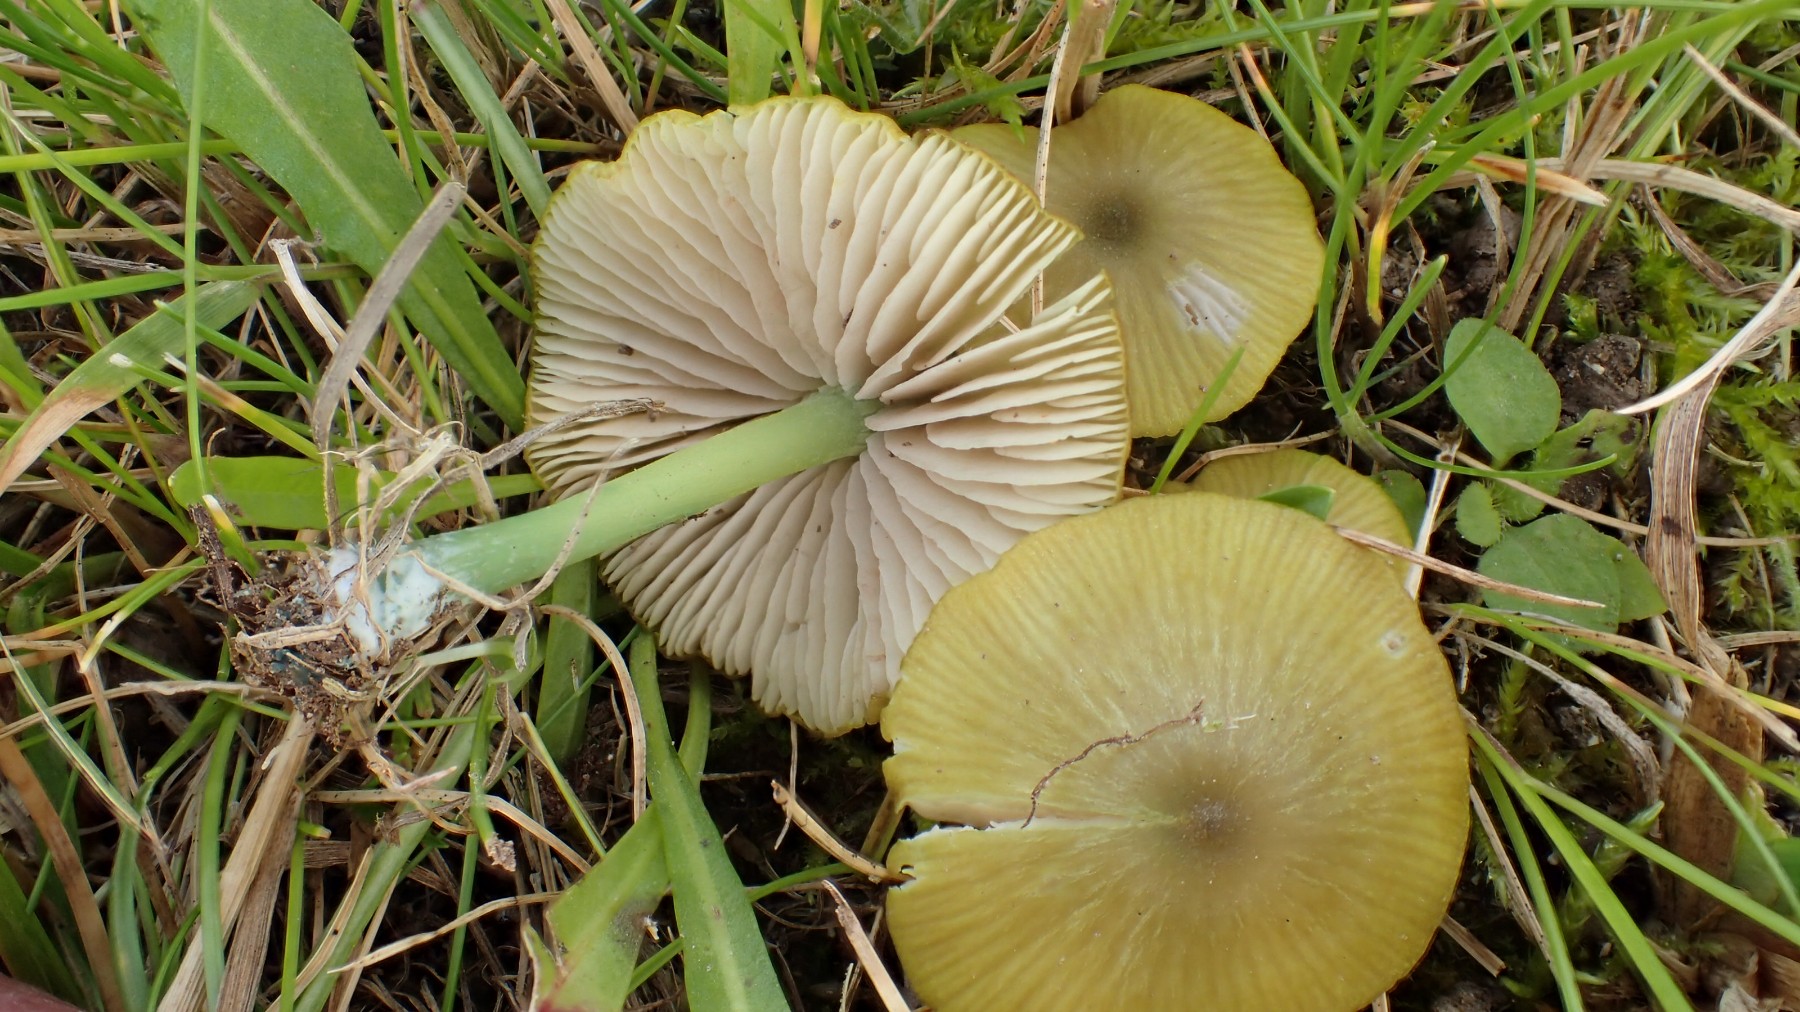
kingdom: Fungi
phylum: Basidiomycota
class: Agaricomycetes
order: Agaricales
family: Entolomataceae
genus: Entoloma
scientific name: Entoloma incanum
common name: grøngul rødblad
